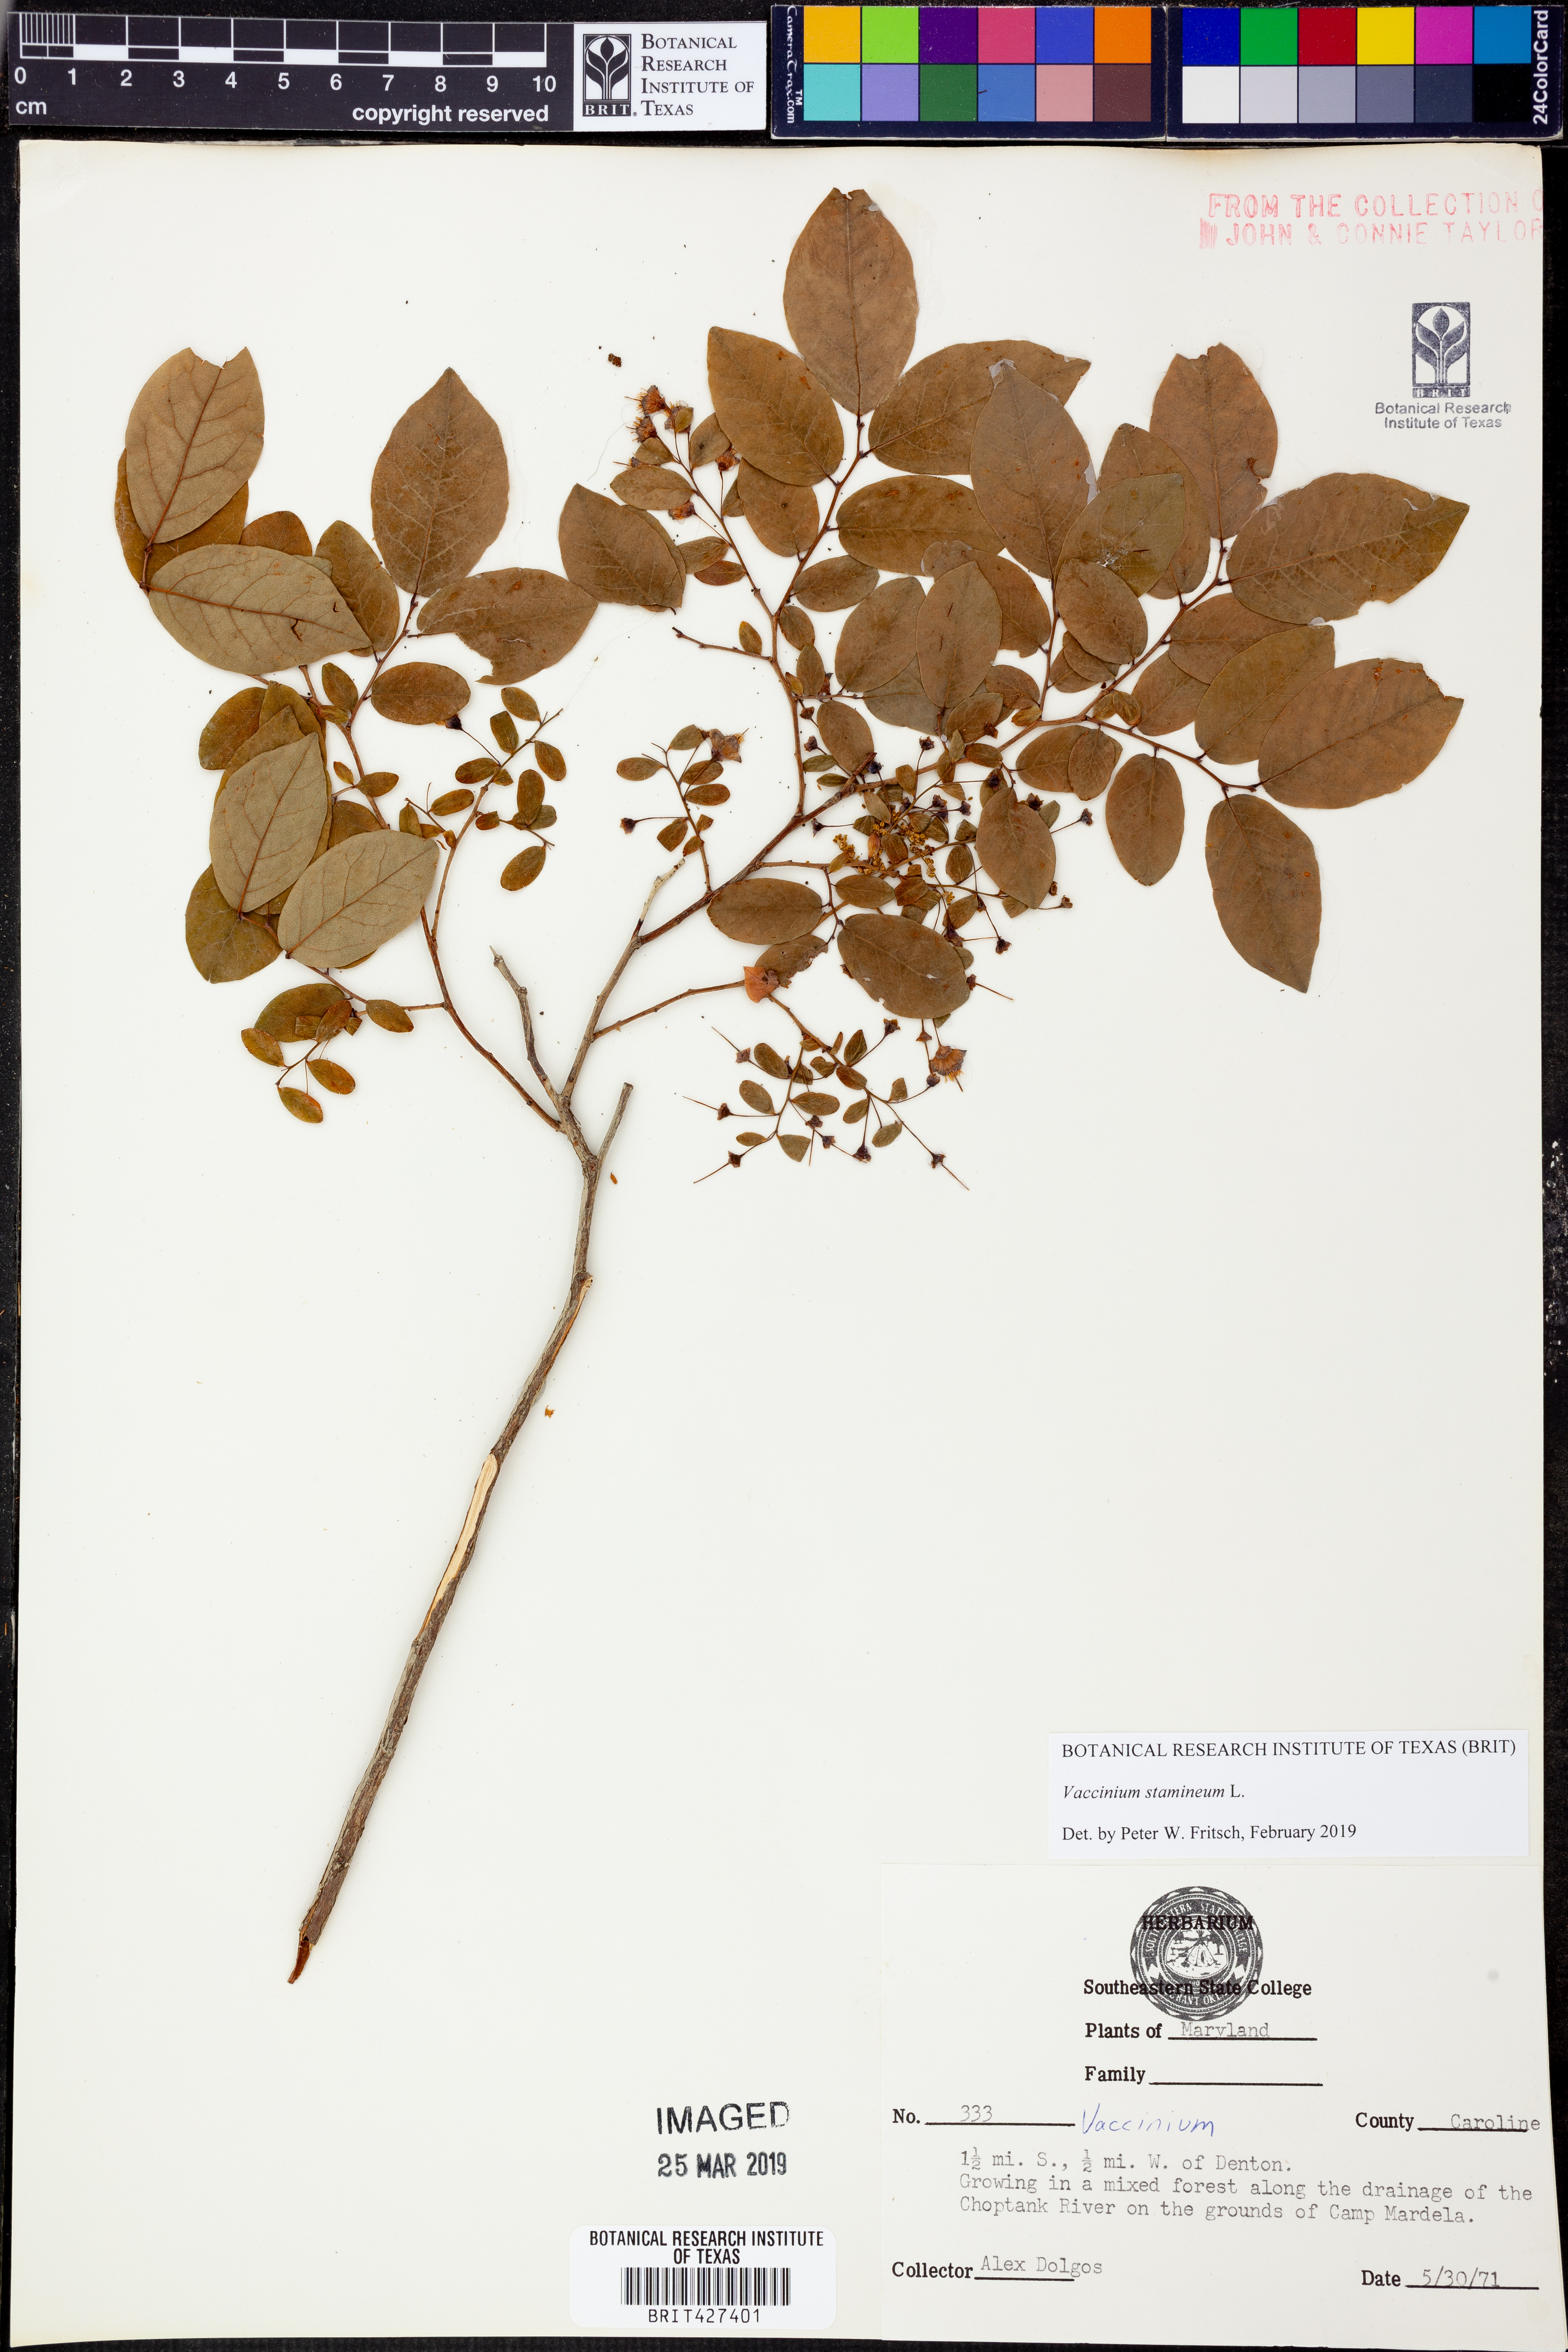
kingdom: Plantae
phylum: Tracheophyta
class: Magnoliopsida
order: Ericales
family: Ericaceae
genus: Vaccinium
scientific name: Vaccinium stamineum
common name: Deerberry
